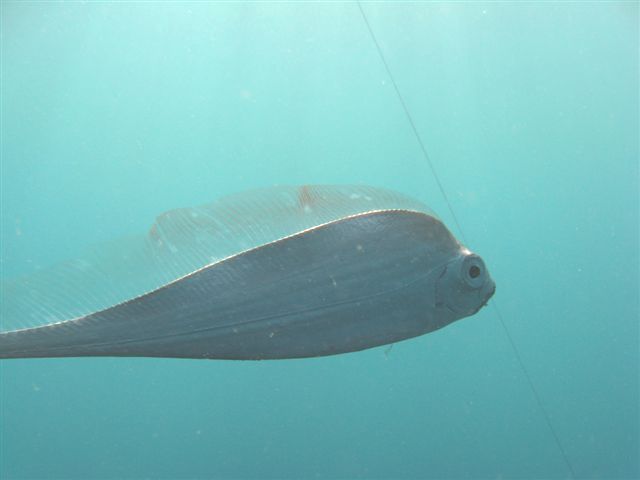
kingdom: Animalia
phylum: Chordata
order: Lampriformes
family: Trachipteridae
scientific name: Trachipteridae
